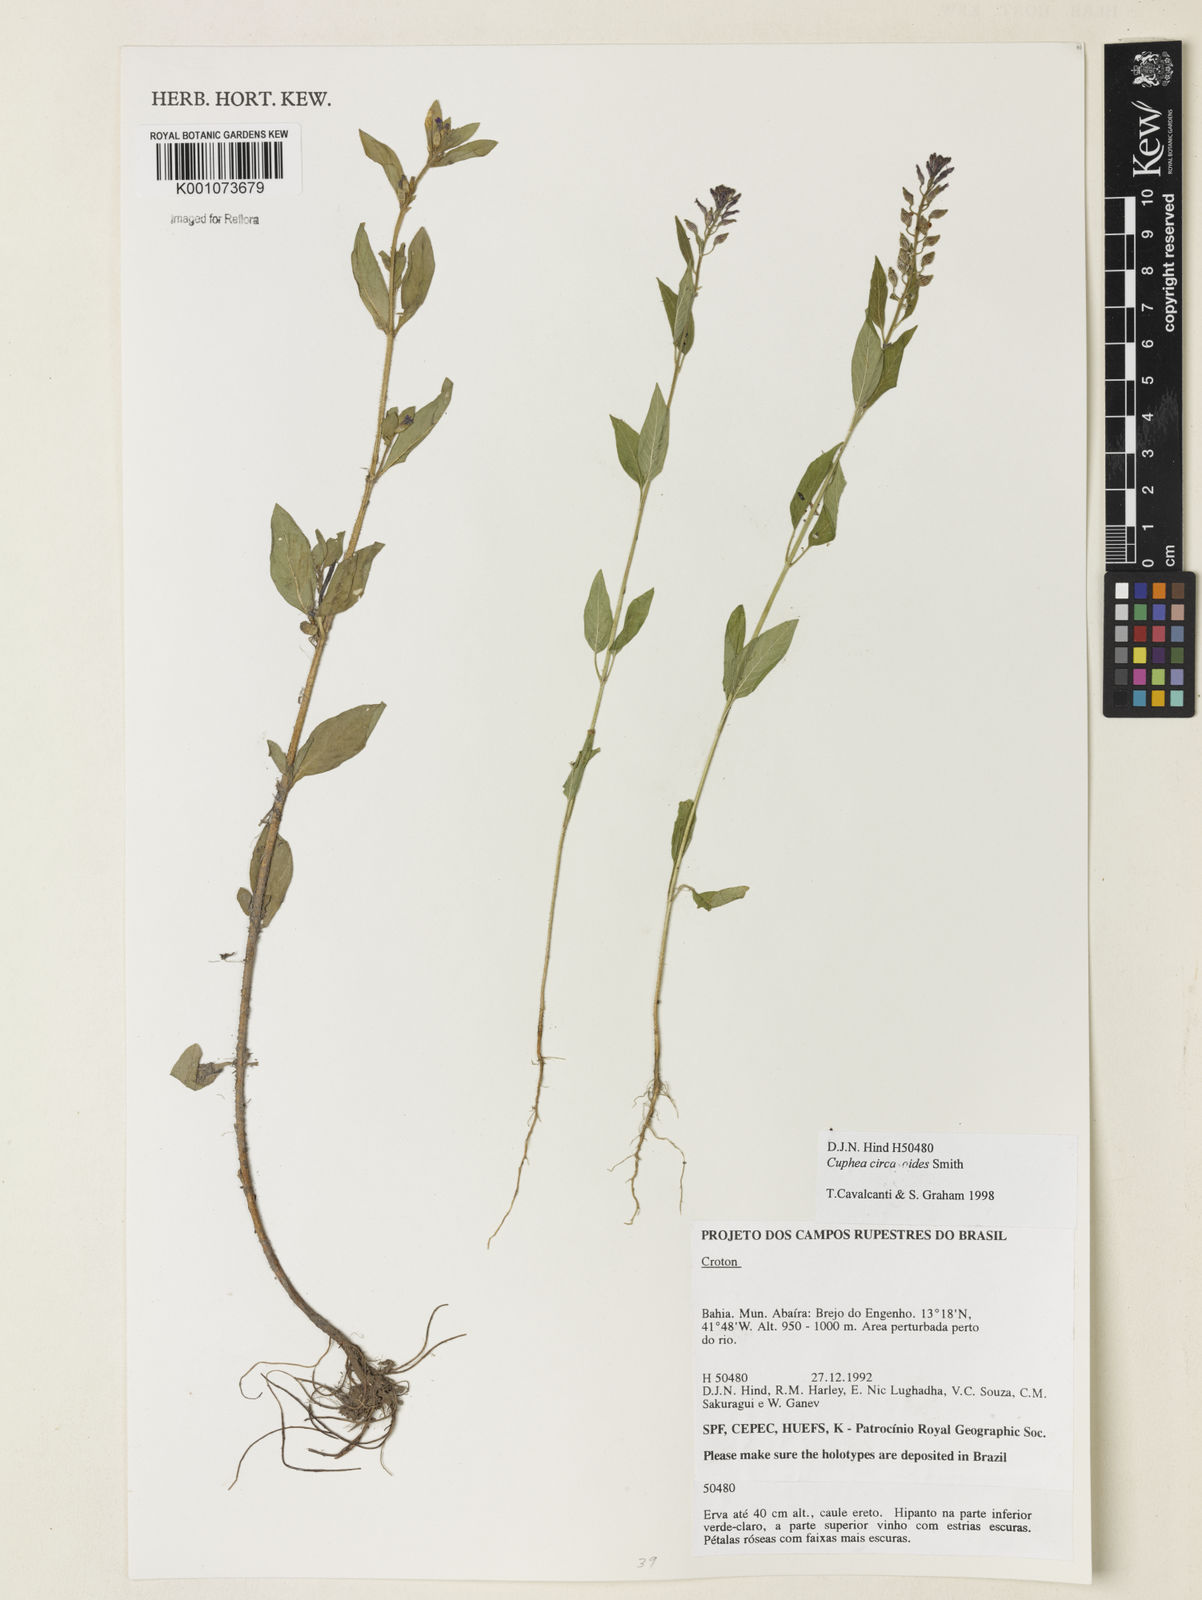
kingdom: Plantae
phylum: Tracheophyta
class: Magnoliopsida
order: Myrtales
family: Lythraceae
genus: Cuphea
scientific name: Cuphea circaeoides
